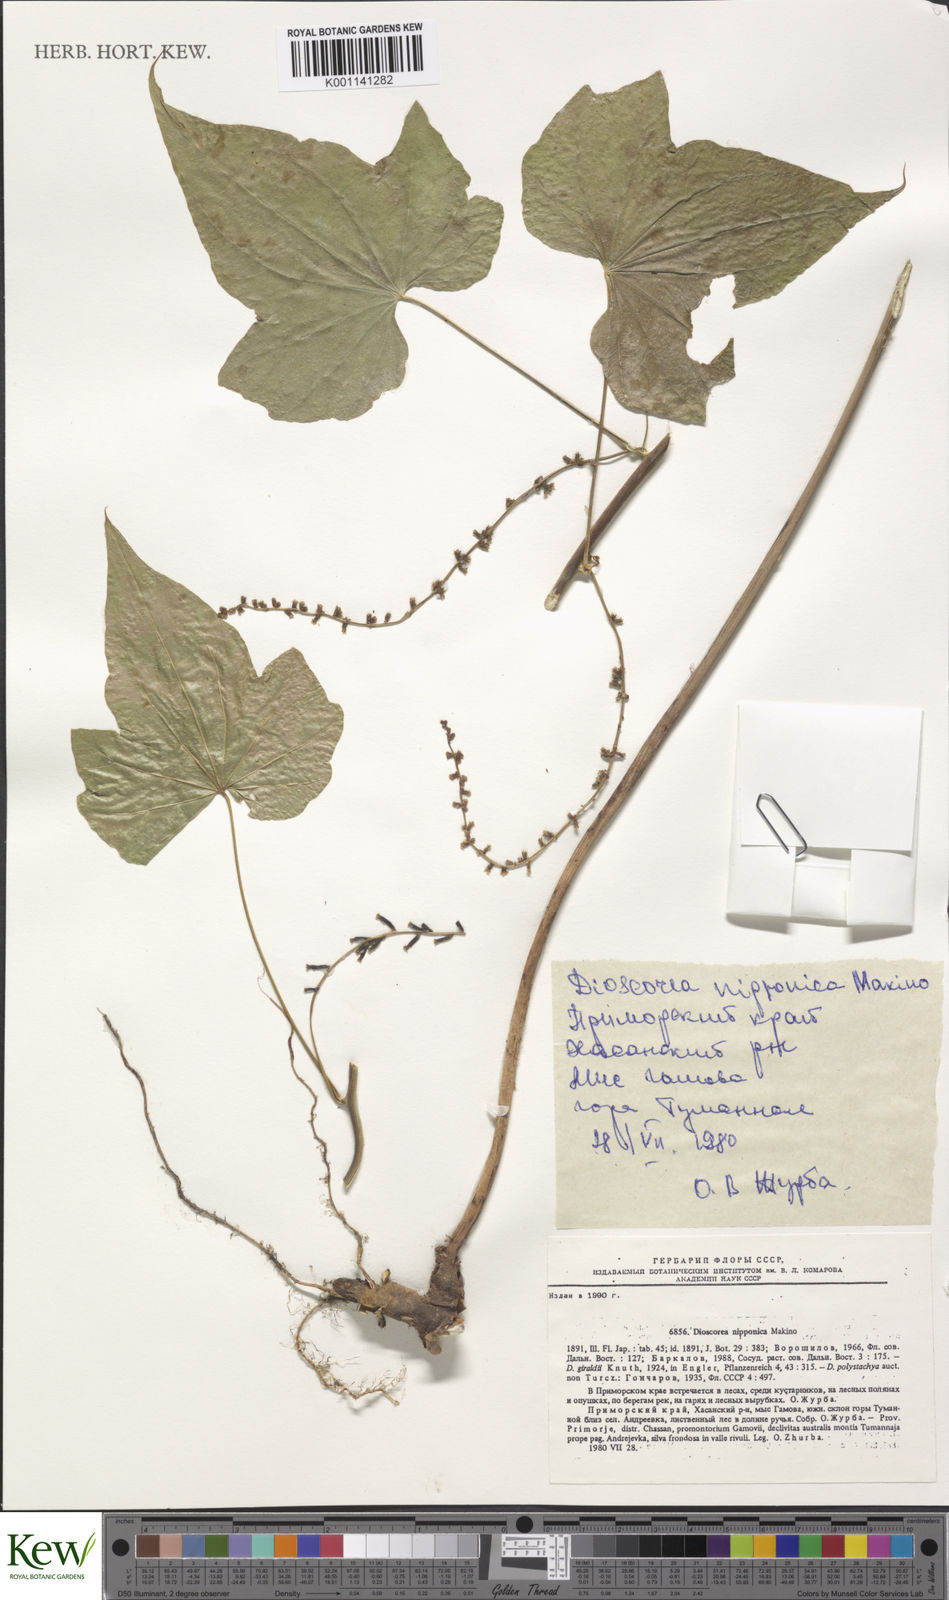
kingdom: Plantae
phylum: Tracheophyta
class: Liliopsida
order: Dioscoreales
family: Dioscoreaceae
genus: Dioscorea
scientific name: Dioscorea nipponica
